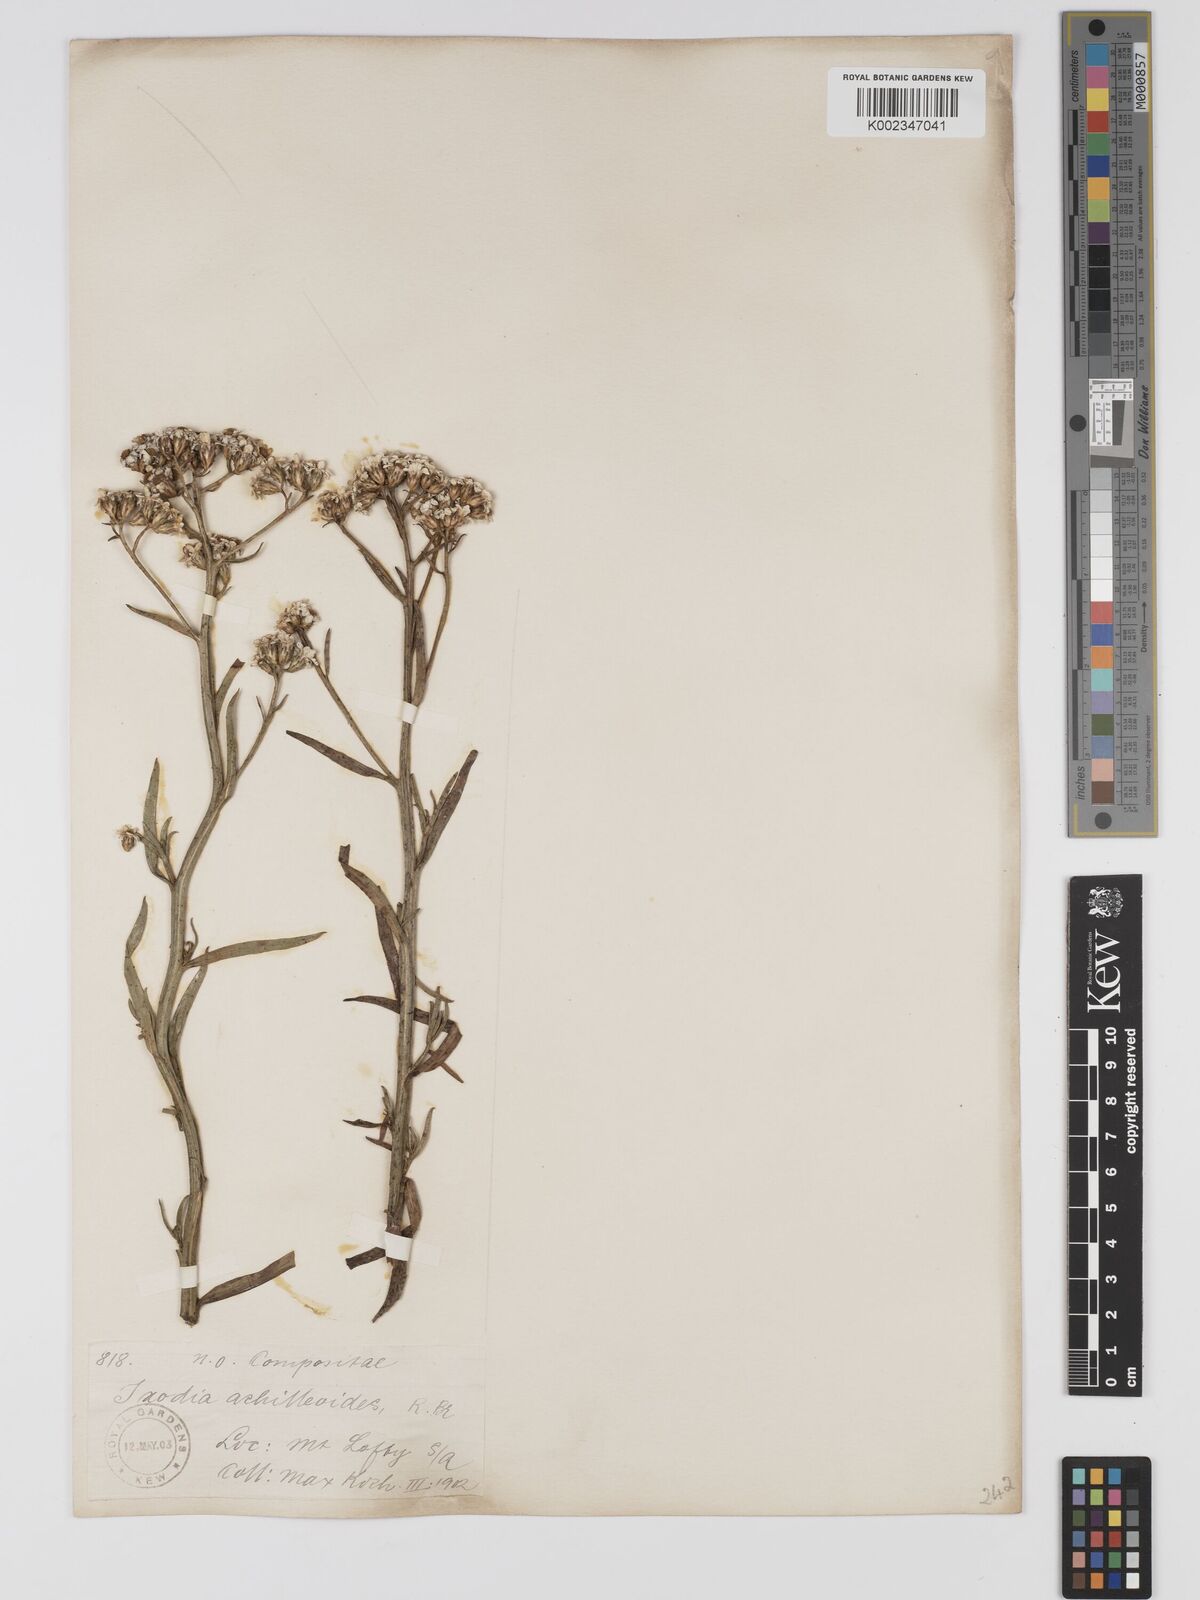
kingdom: Plantae
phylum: Tracheophyta
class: Magnoliopsida
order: Asterales
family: Asteraceae
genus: Ixodia
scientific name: Ixodia achilleoides
